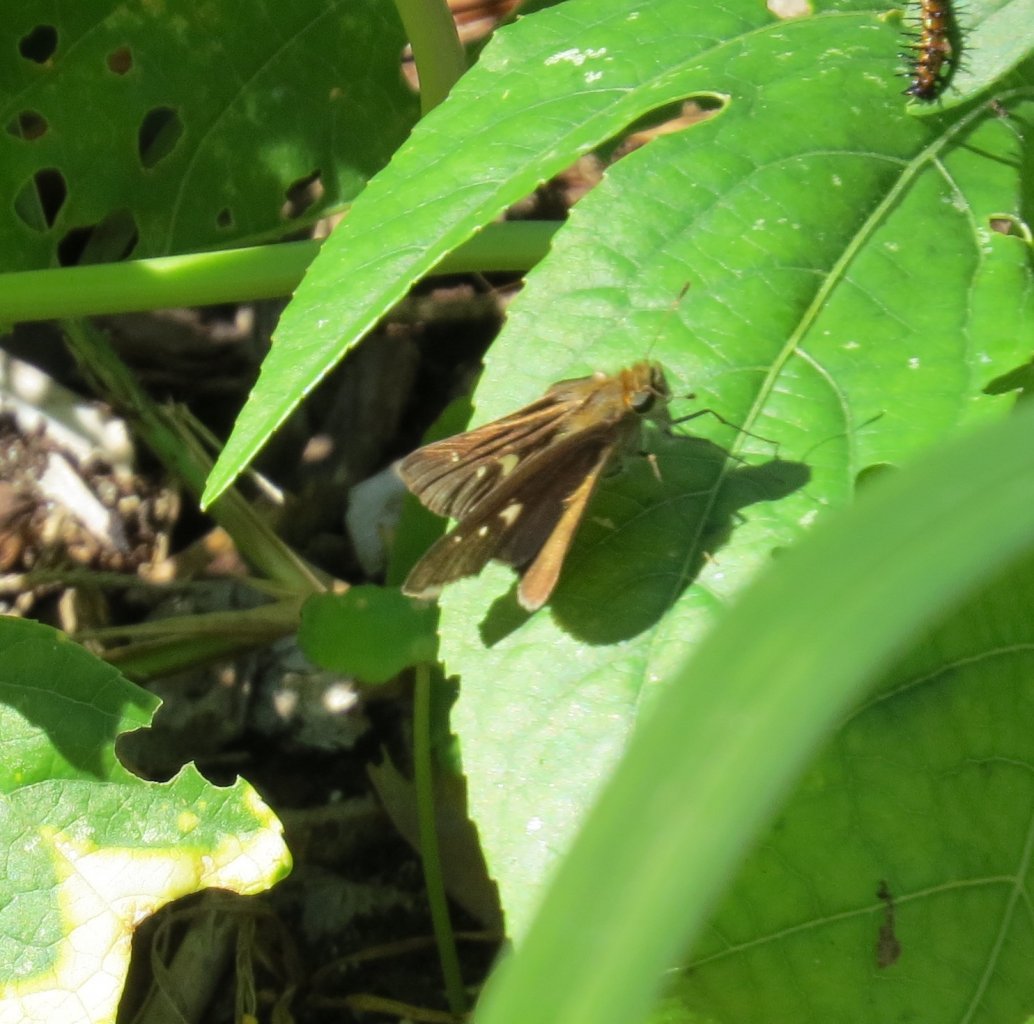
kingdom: Animalia
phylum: Arthropoda
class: Insecta
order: Lepidoptera
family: Hesperiidae
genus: Panoquina
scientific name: Panoquina ocola
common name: Ocola Skipper
